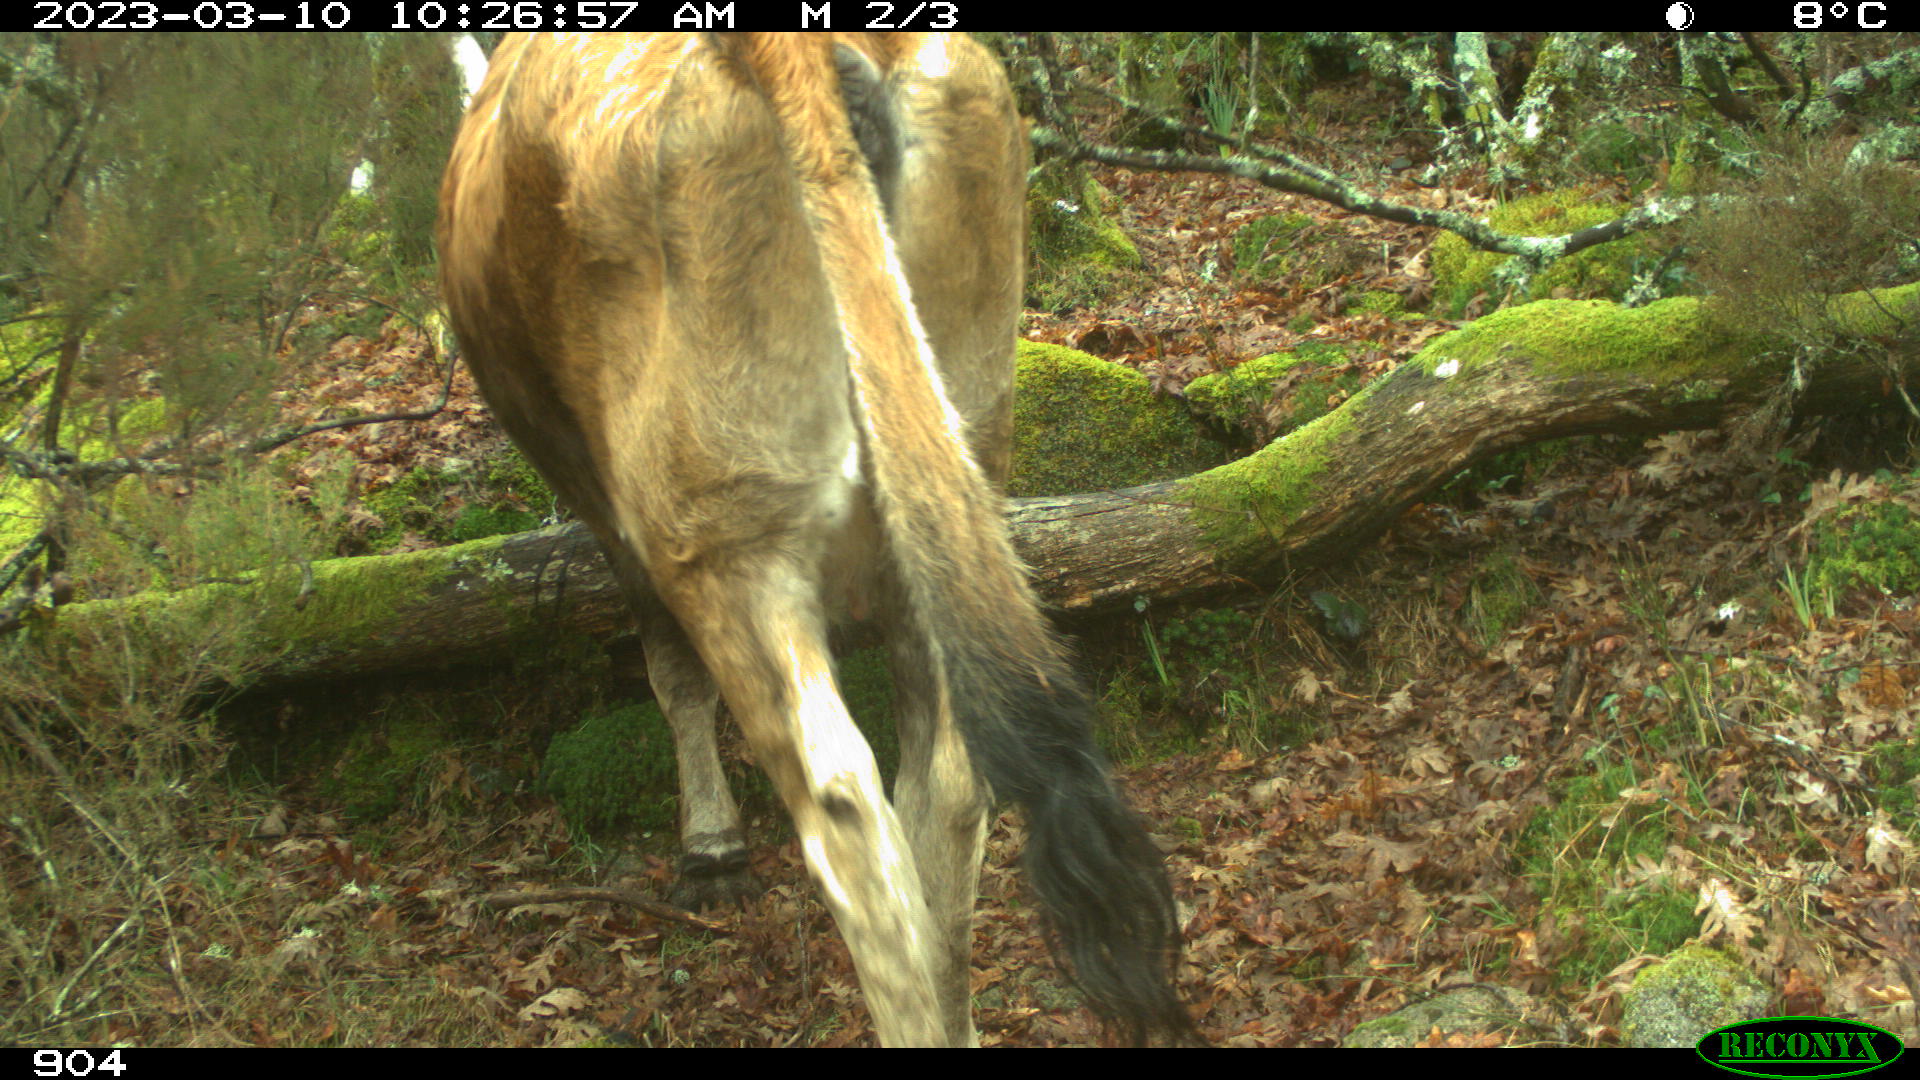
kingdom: Animalia
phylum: Chordata
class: Mammalia
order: Artiodactyla
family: Bovidae
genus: Bos
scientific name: Bos taurus
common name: Domesticated cattle
